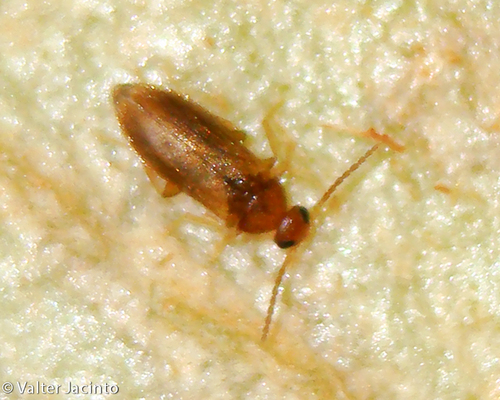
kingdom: Animalia
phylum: Arthropoda
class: Insecta
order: Coleoptera
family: Scraptiidae
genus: Scraptia
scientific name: Scraptia
